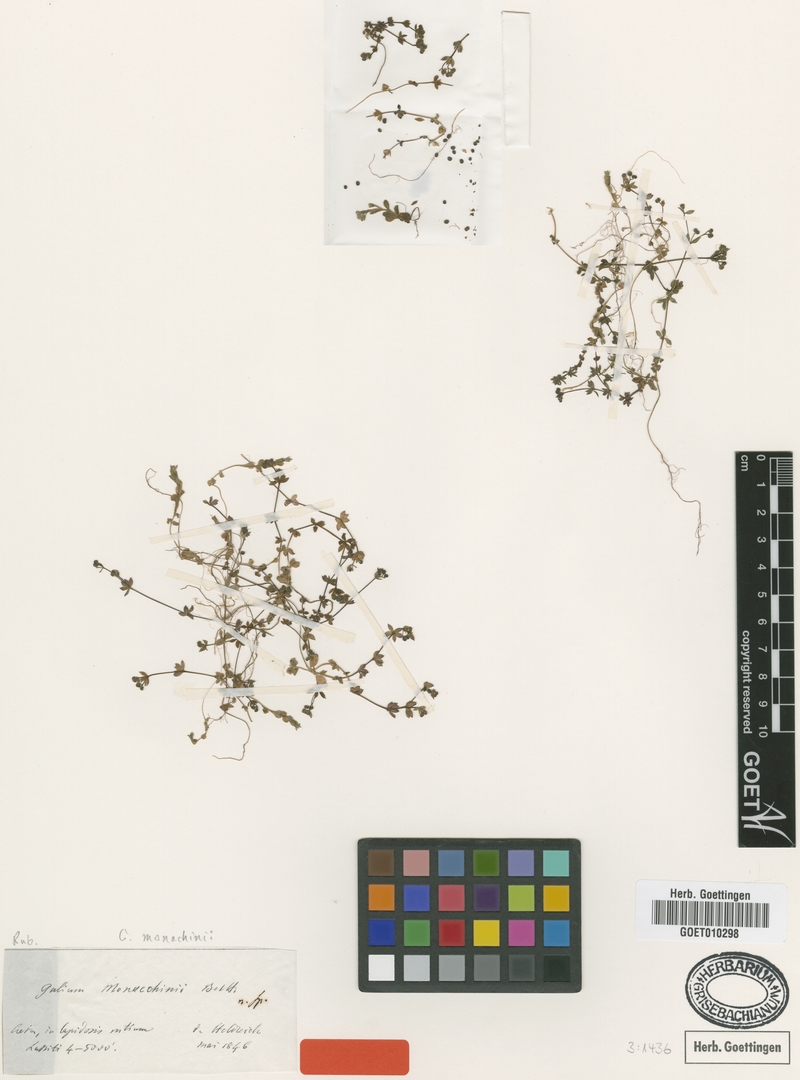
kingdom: Plantae
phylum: Tracheophyta
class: Magnoliopsida
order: Gentianales
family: Rubiaceae
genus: Galium
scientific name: Galium monachinii
